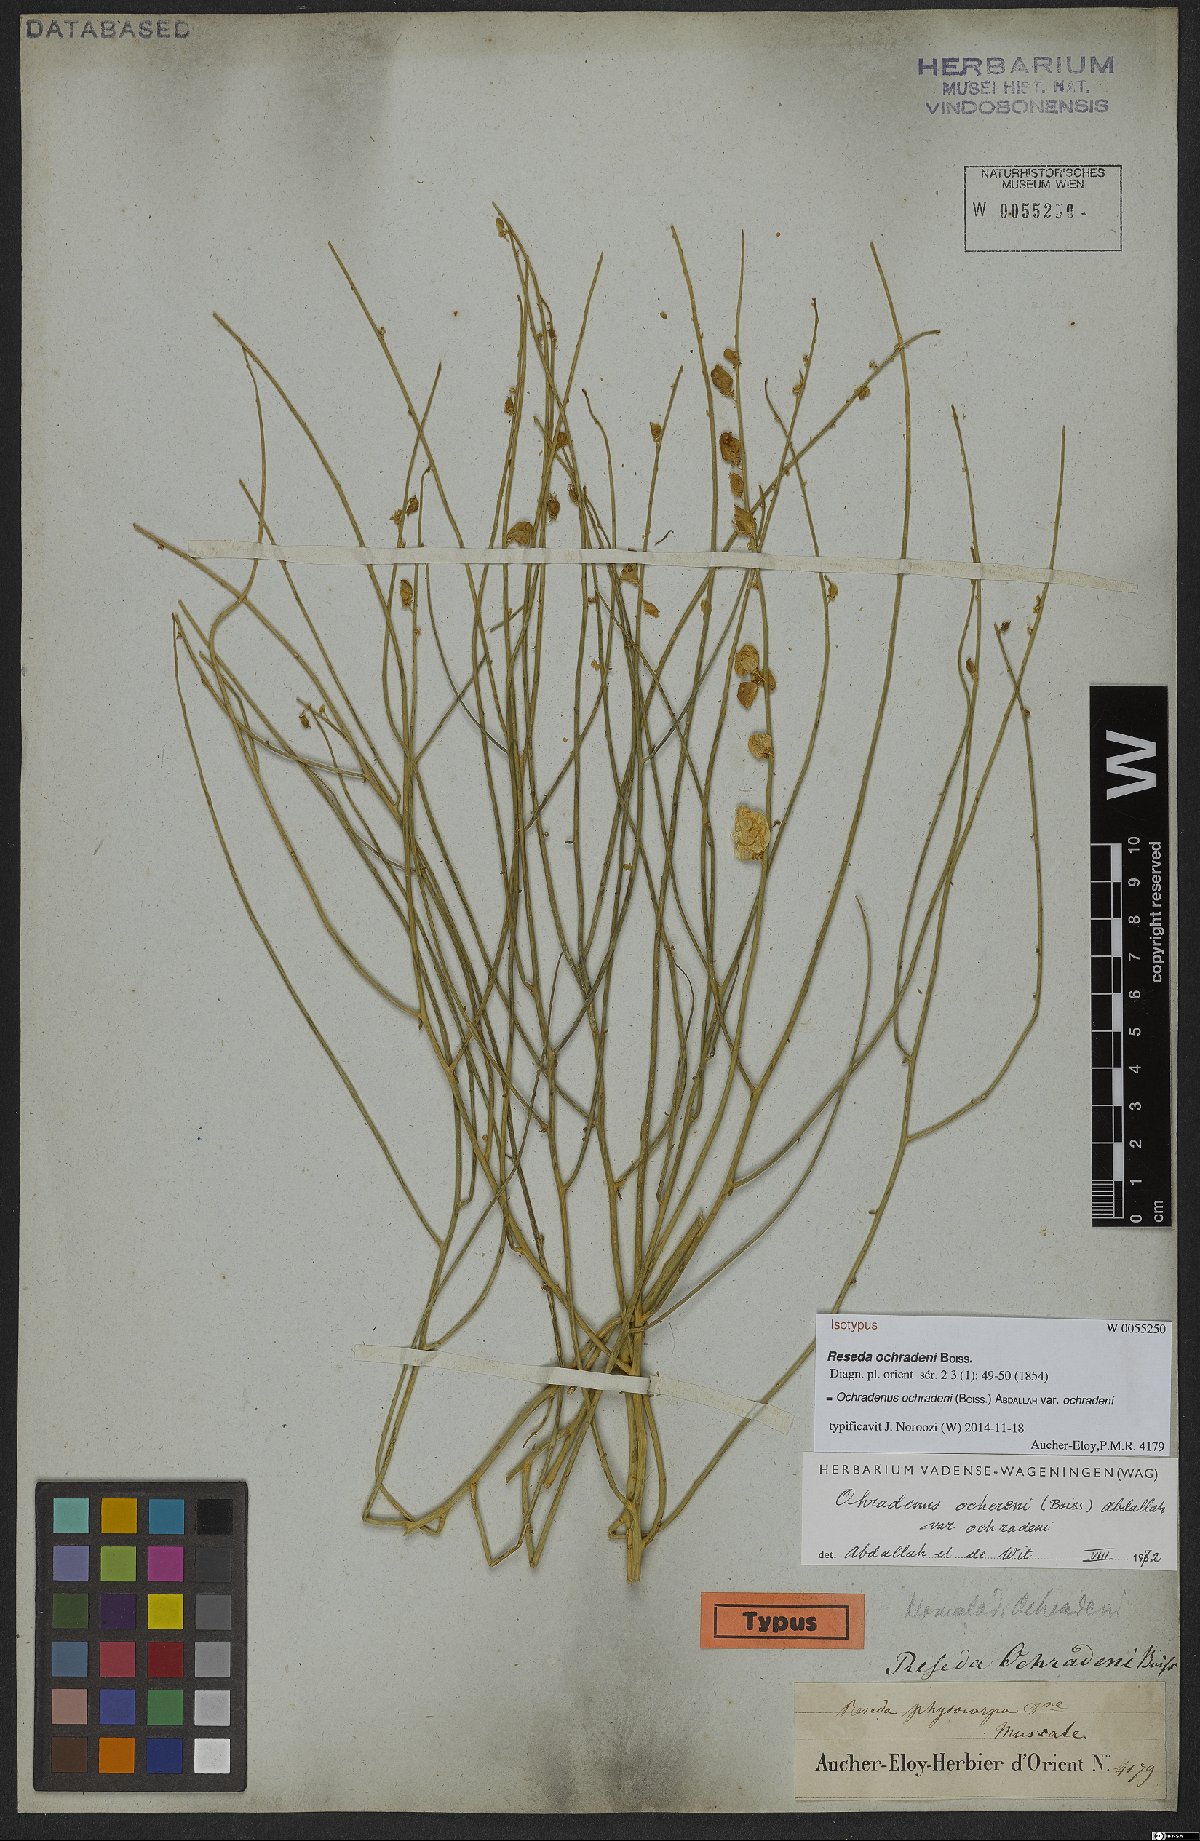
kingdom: Plantae
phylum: Tracheophyta
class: Magnoliopsida
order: Brassicales
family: Resedaceae
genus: Ochradiscus
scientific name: Ochradiscus ochradeni
